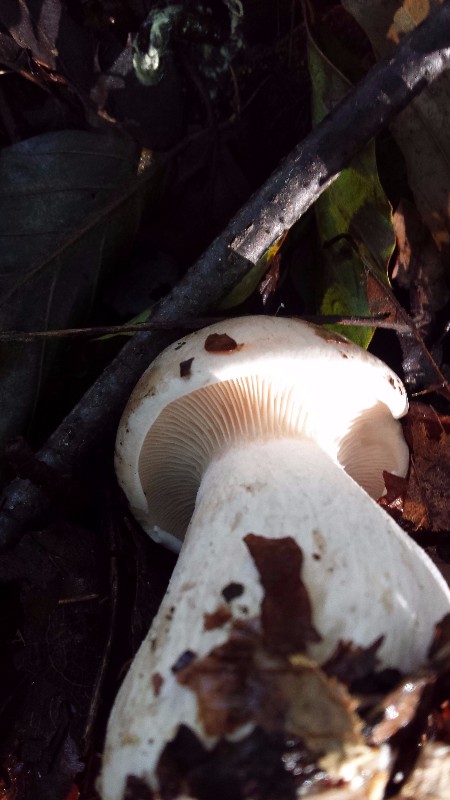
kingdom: Fungi
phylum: Basidiomycota
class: Agaricomycetes
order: Agaricales
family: Tricholomataceae
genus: Clitocybe
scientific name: Clitocybe nebularis
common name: tåge-tragthat
